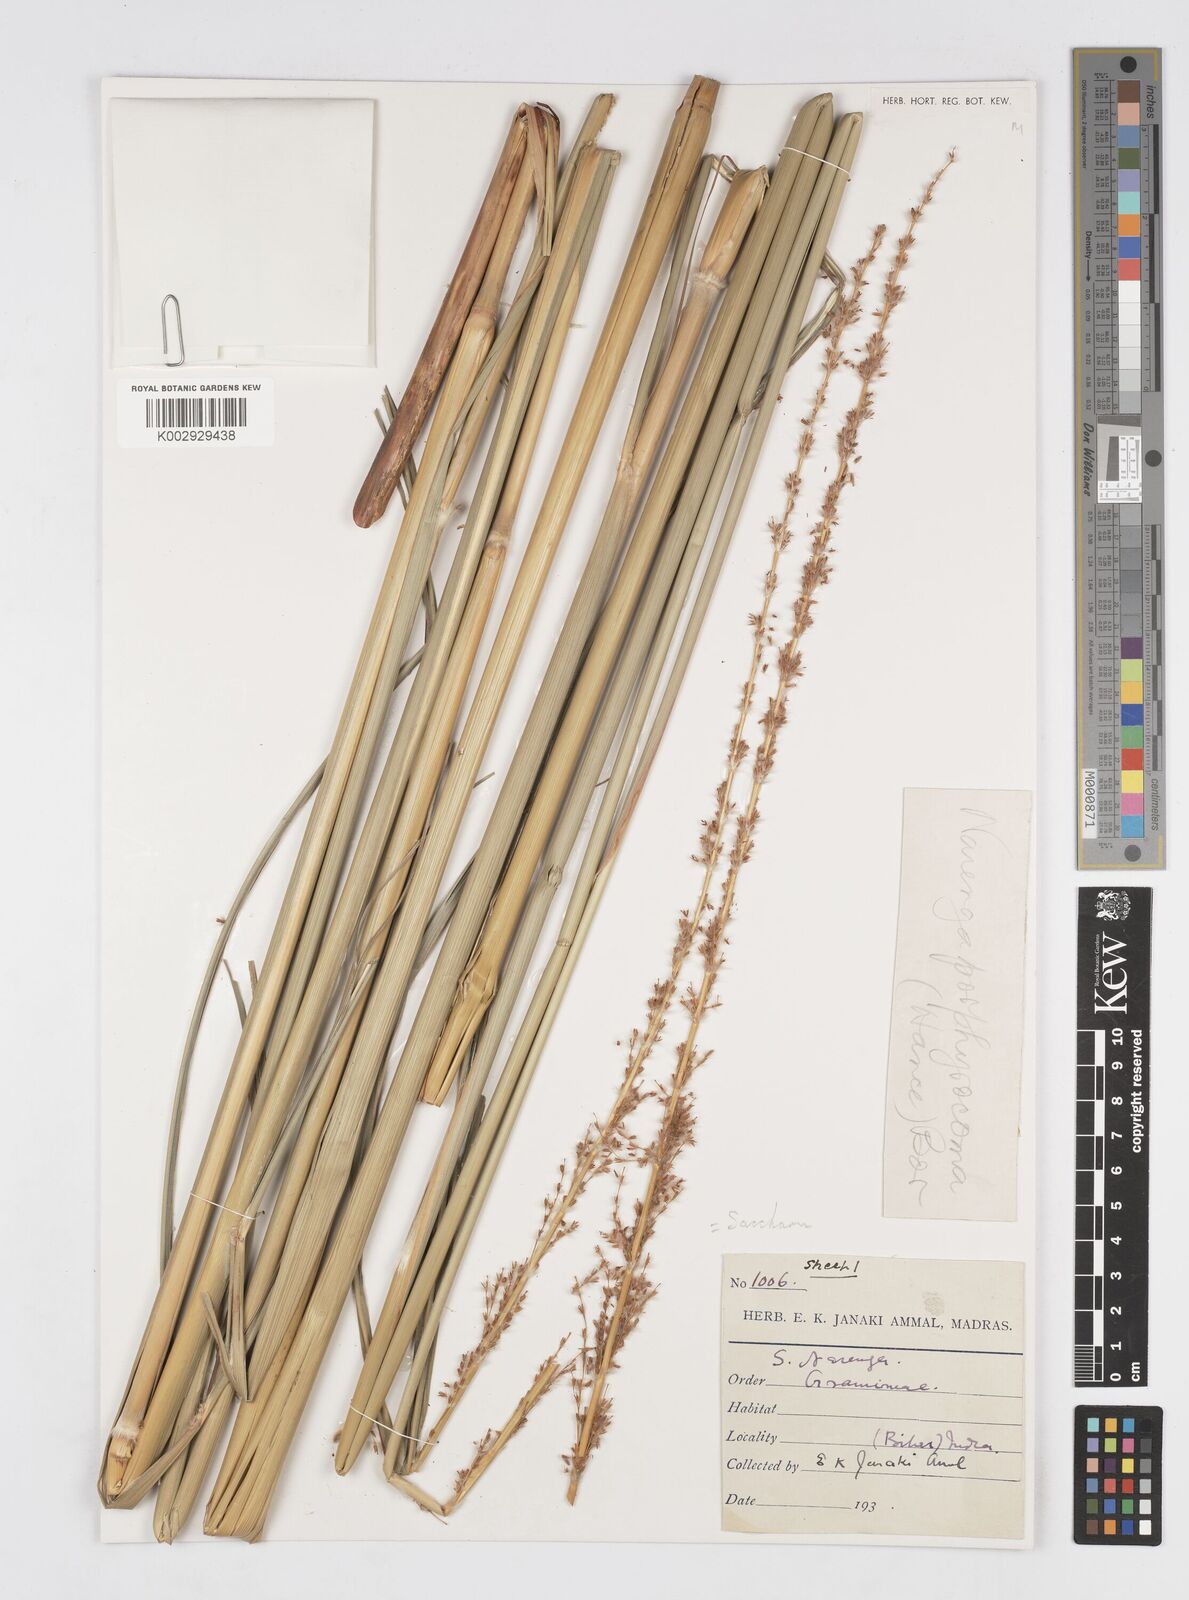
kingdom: Plantae
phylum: Tracheophyta
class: Liliopsida
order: Poales
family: Poaceae
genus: Narenga
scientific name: Narenga porphyrocoma
